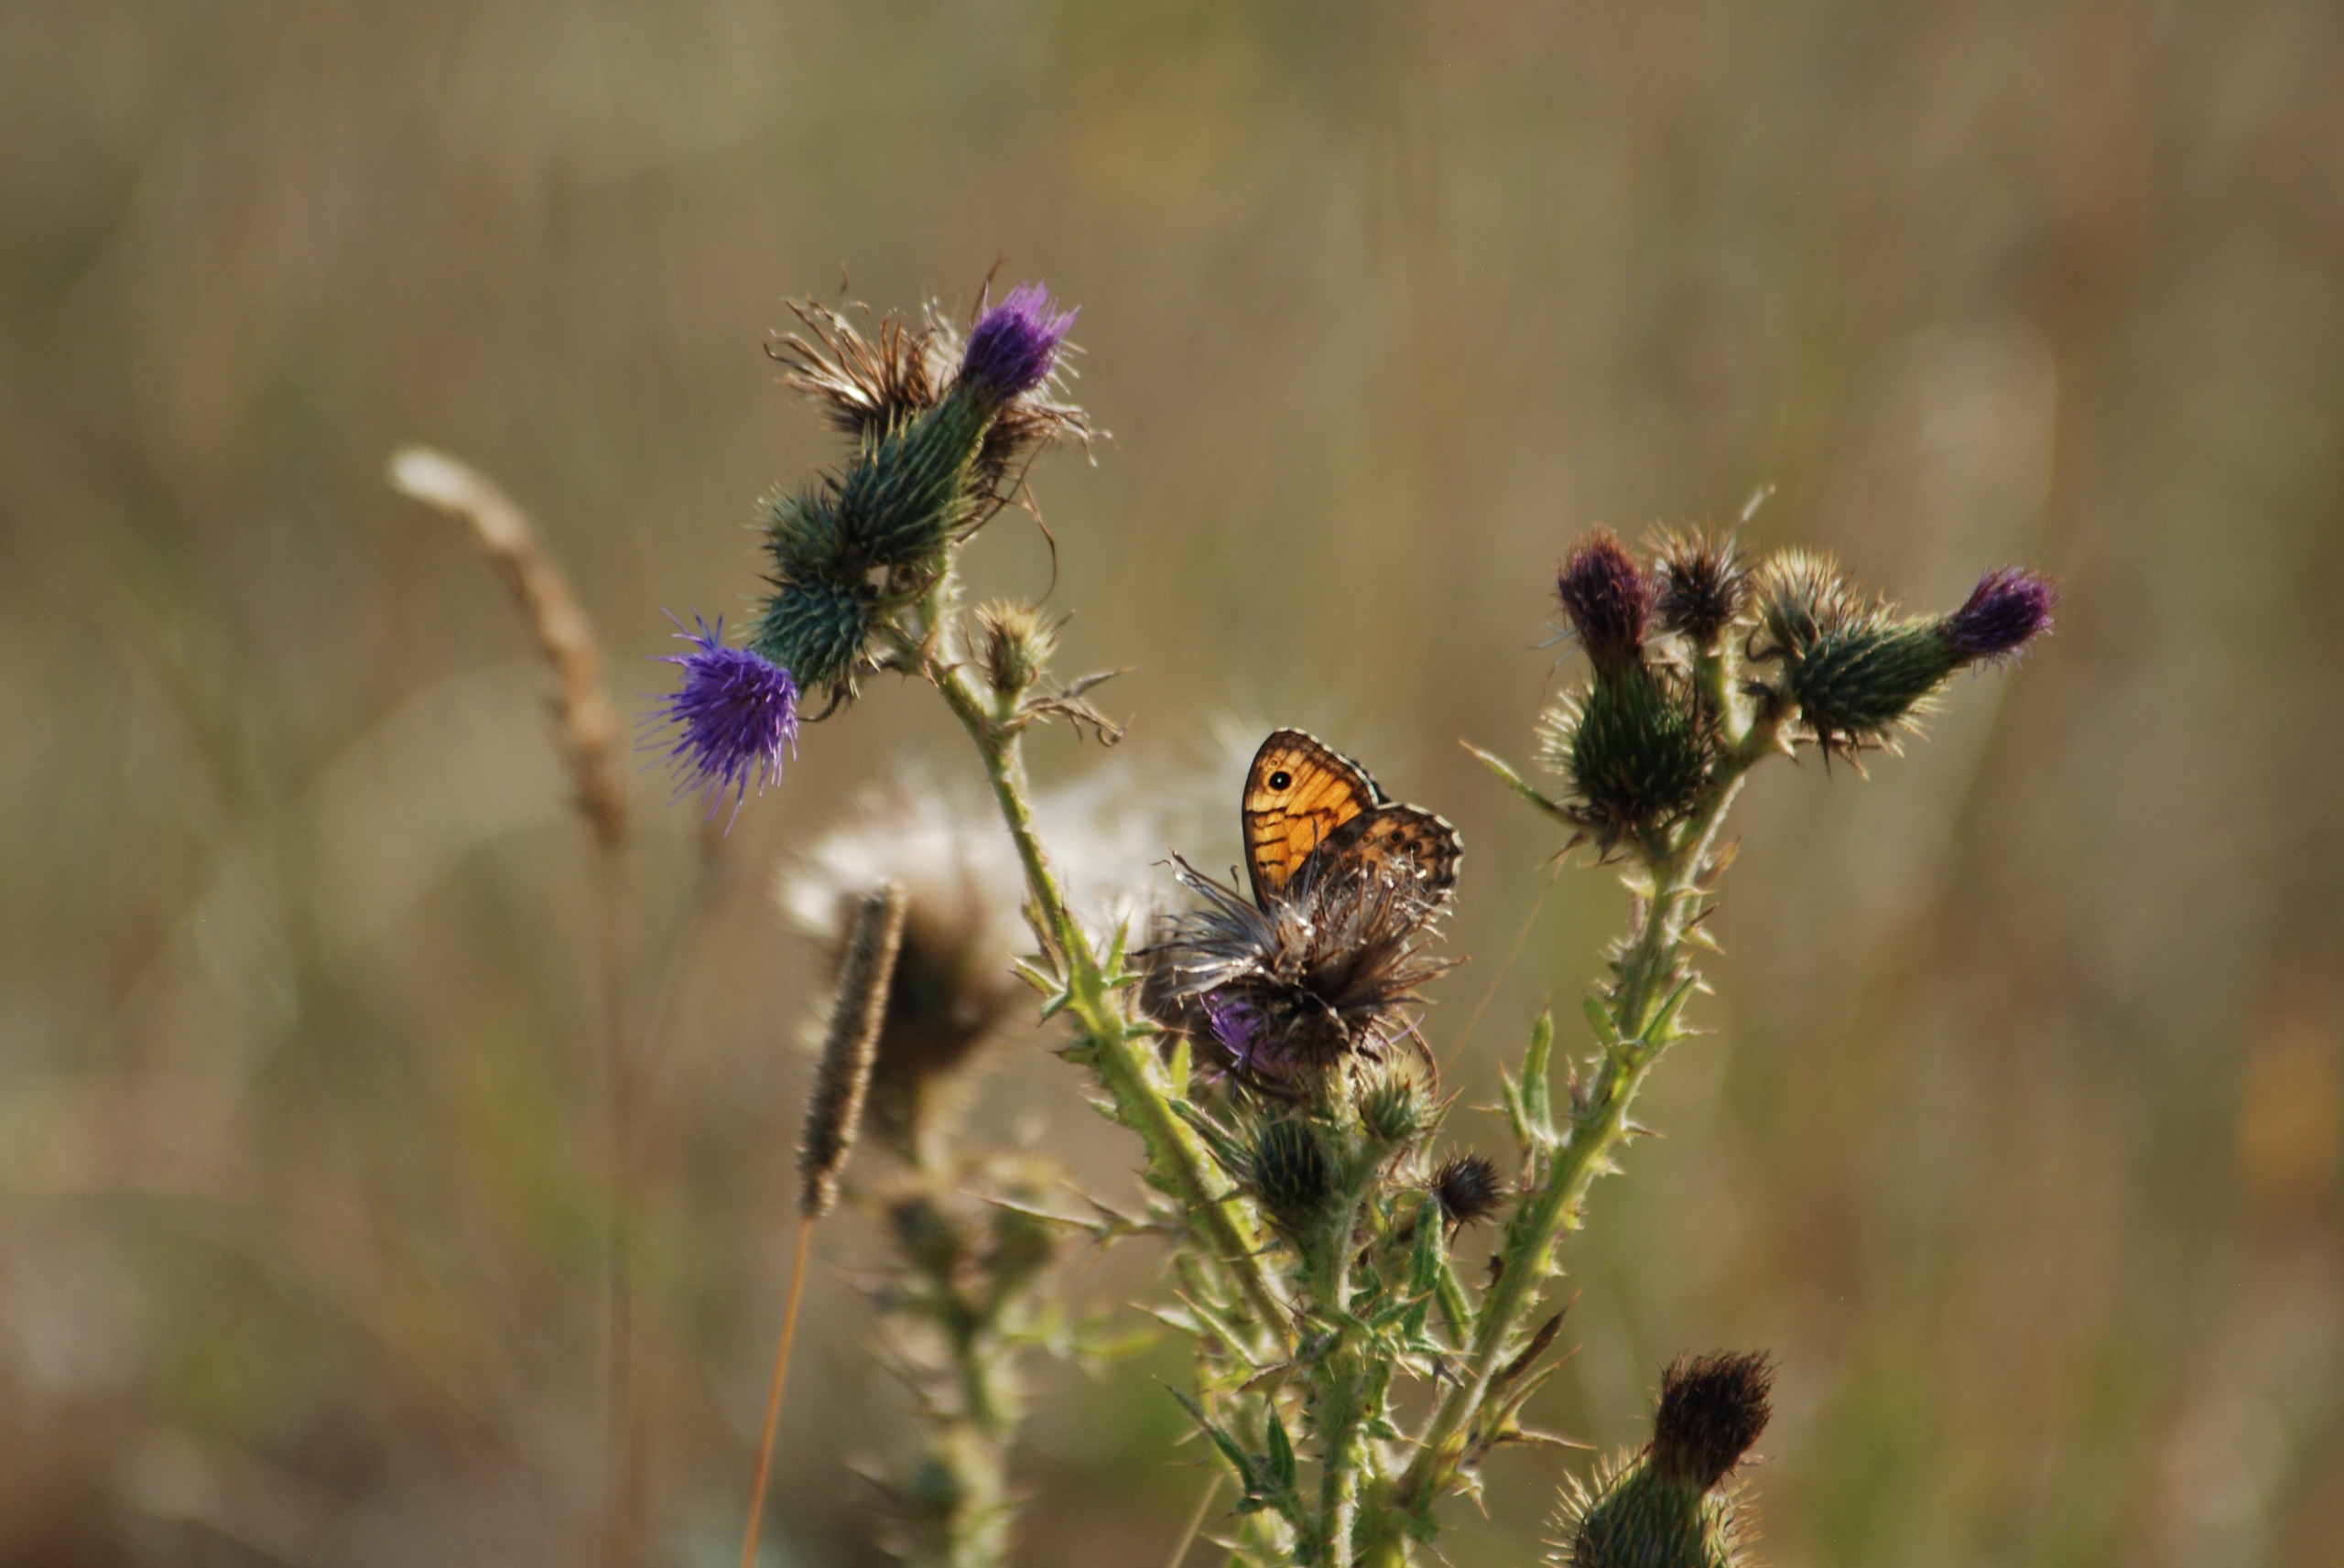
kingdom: Animalia
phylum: Arthropoda
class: Insecta
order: Lepidoptera
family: Nymphalidae
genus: Pararge
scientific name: Pararge Lasiommata megera
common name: Vejrandøje
